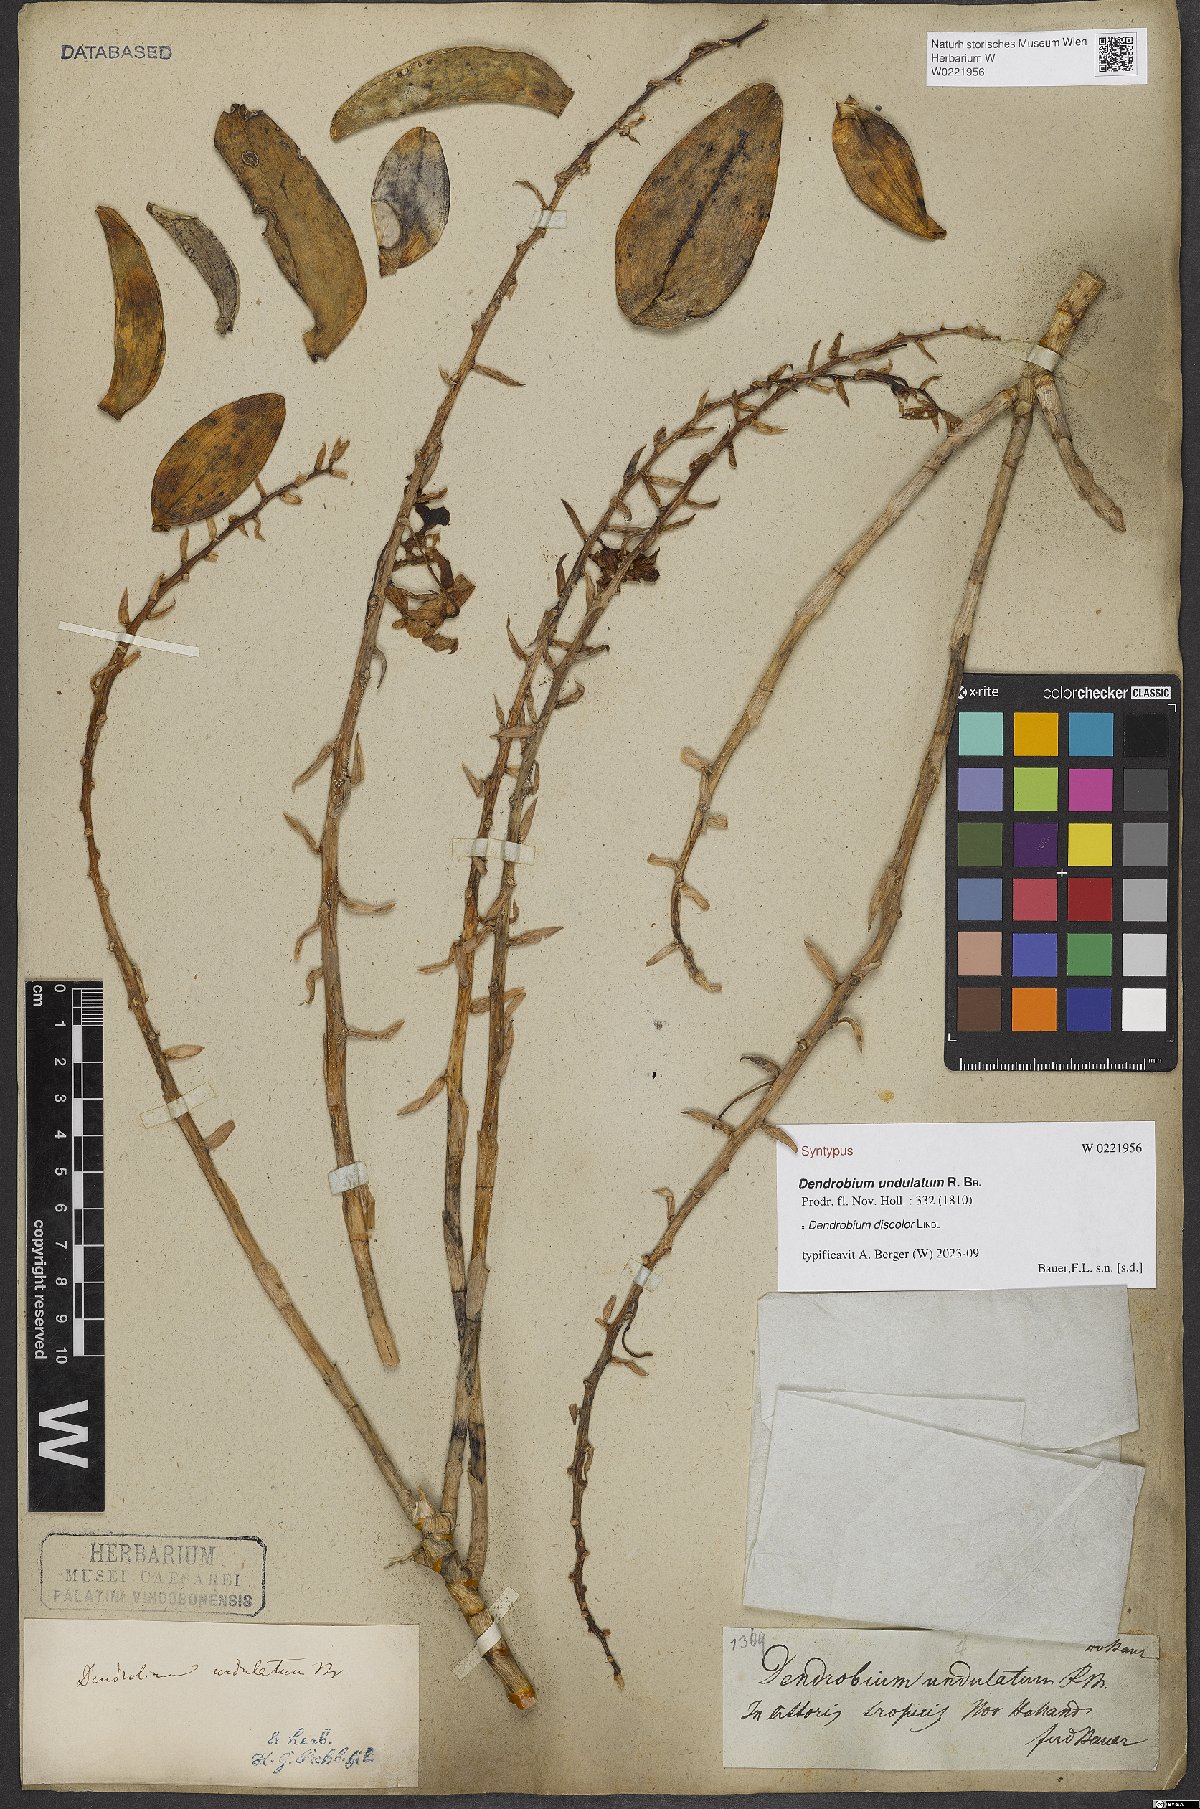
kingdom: Plantae
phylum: Tracheophyta
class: Liliopsida
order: Asparagales
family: Orchidaceae
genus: Dendrobium
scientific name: Dendrobium discolor
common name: Golden antler orchid
